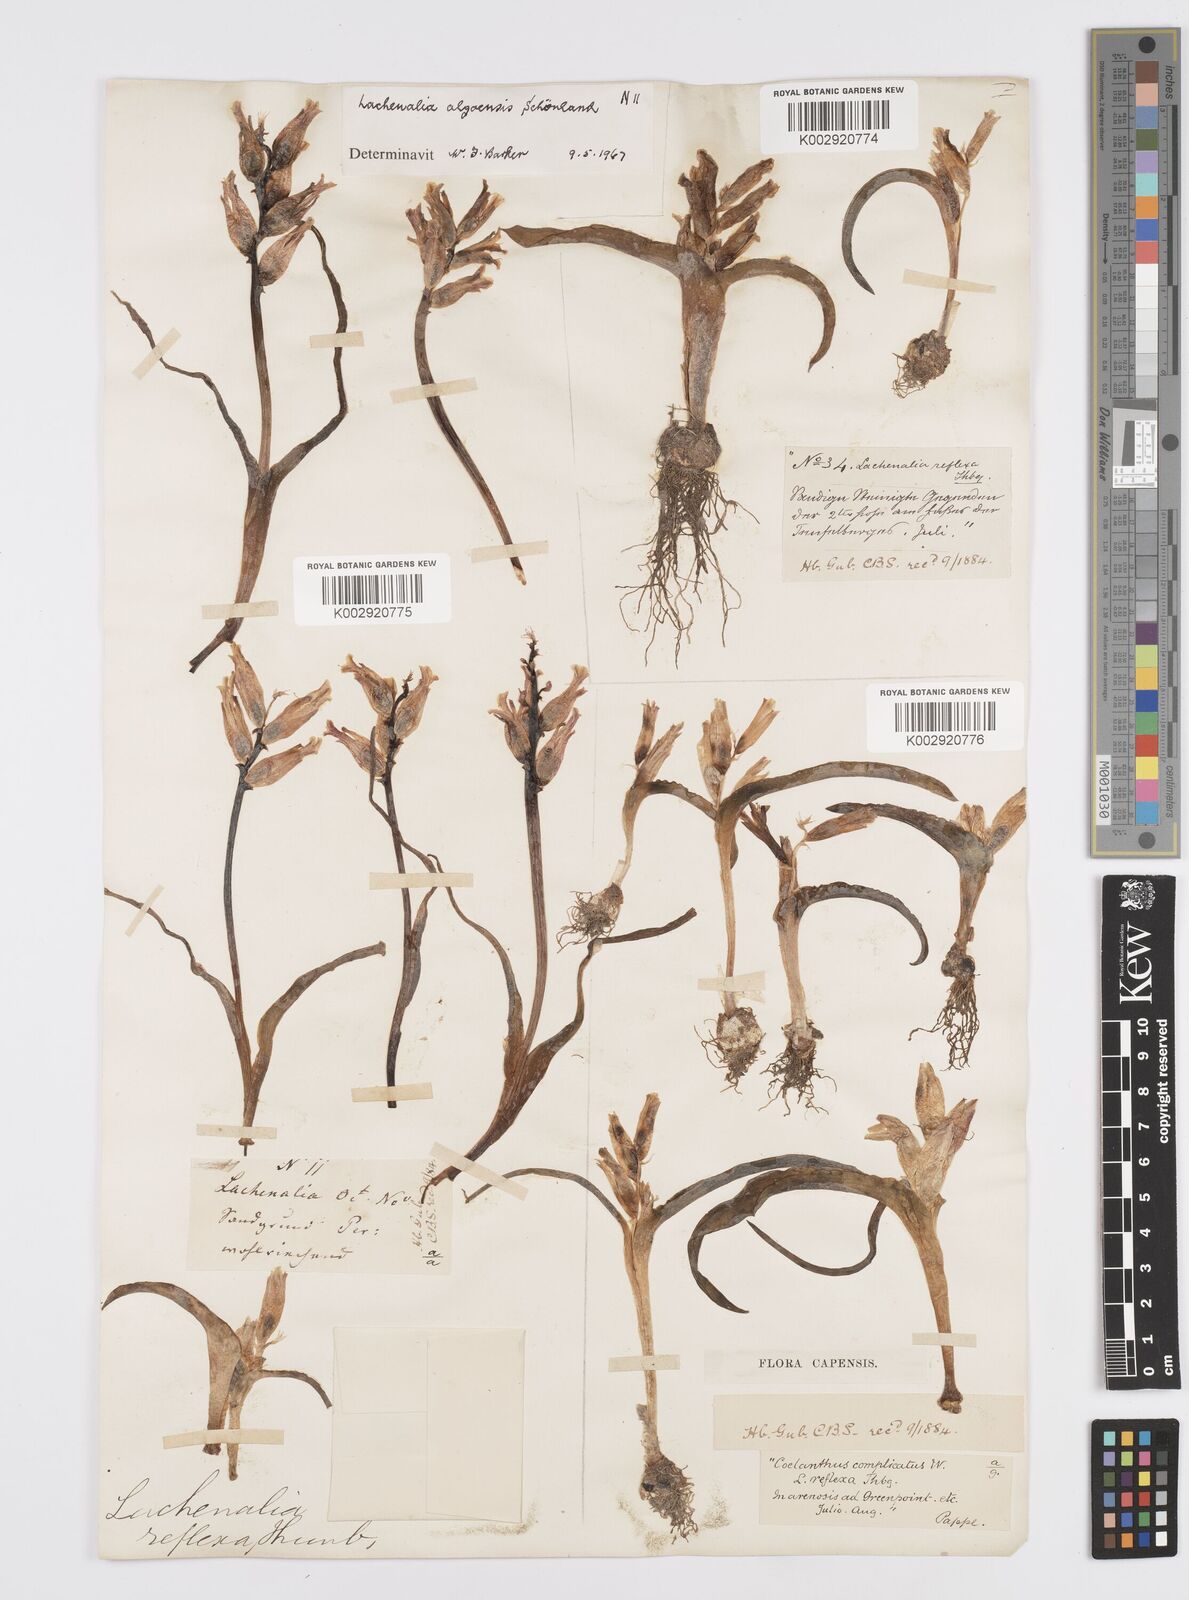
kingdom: Plantae
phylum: Tracheophyta
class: Liliopsida
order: Asparagales
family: Asparagaceae
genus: Lachenalia
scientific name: Lachenalia algoensis
